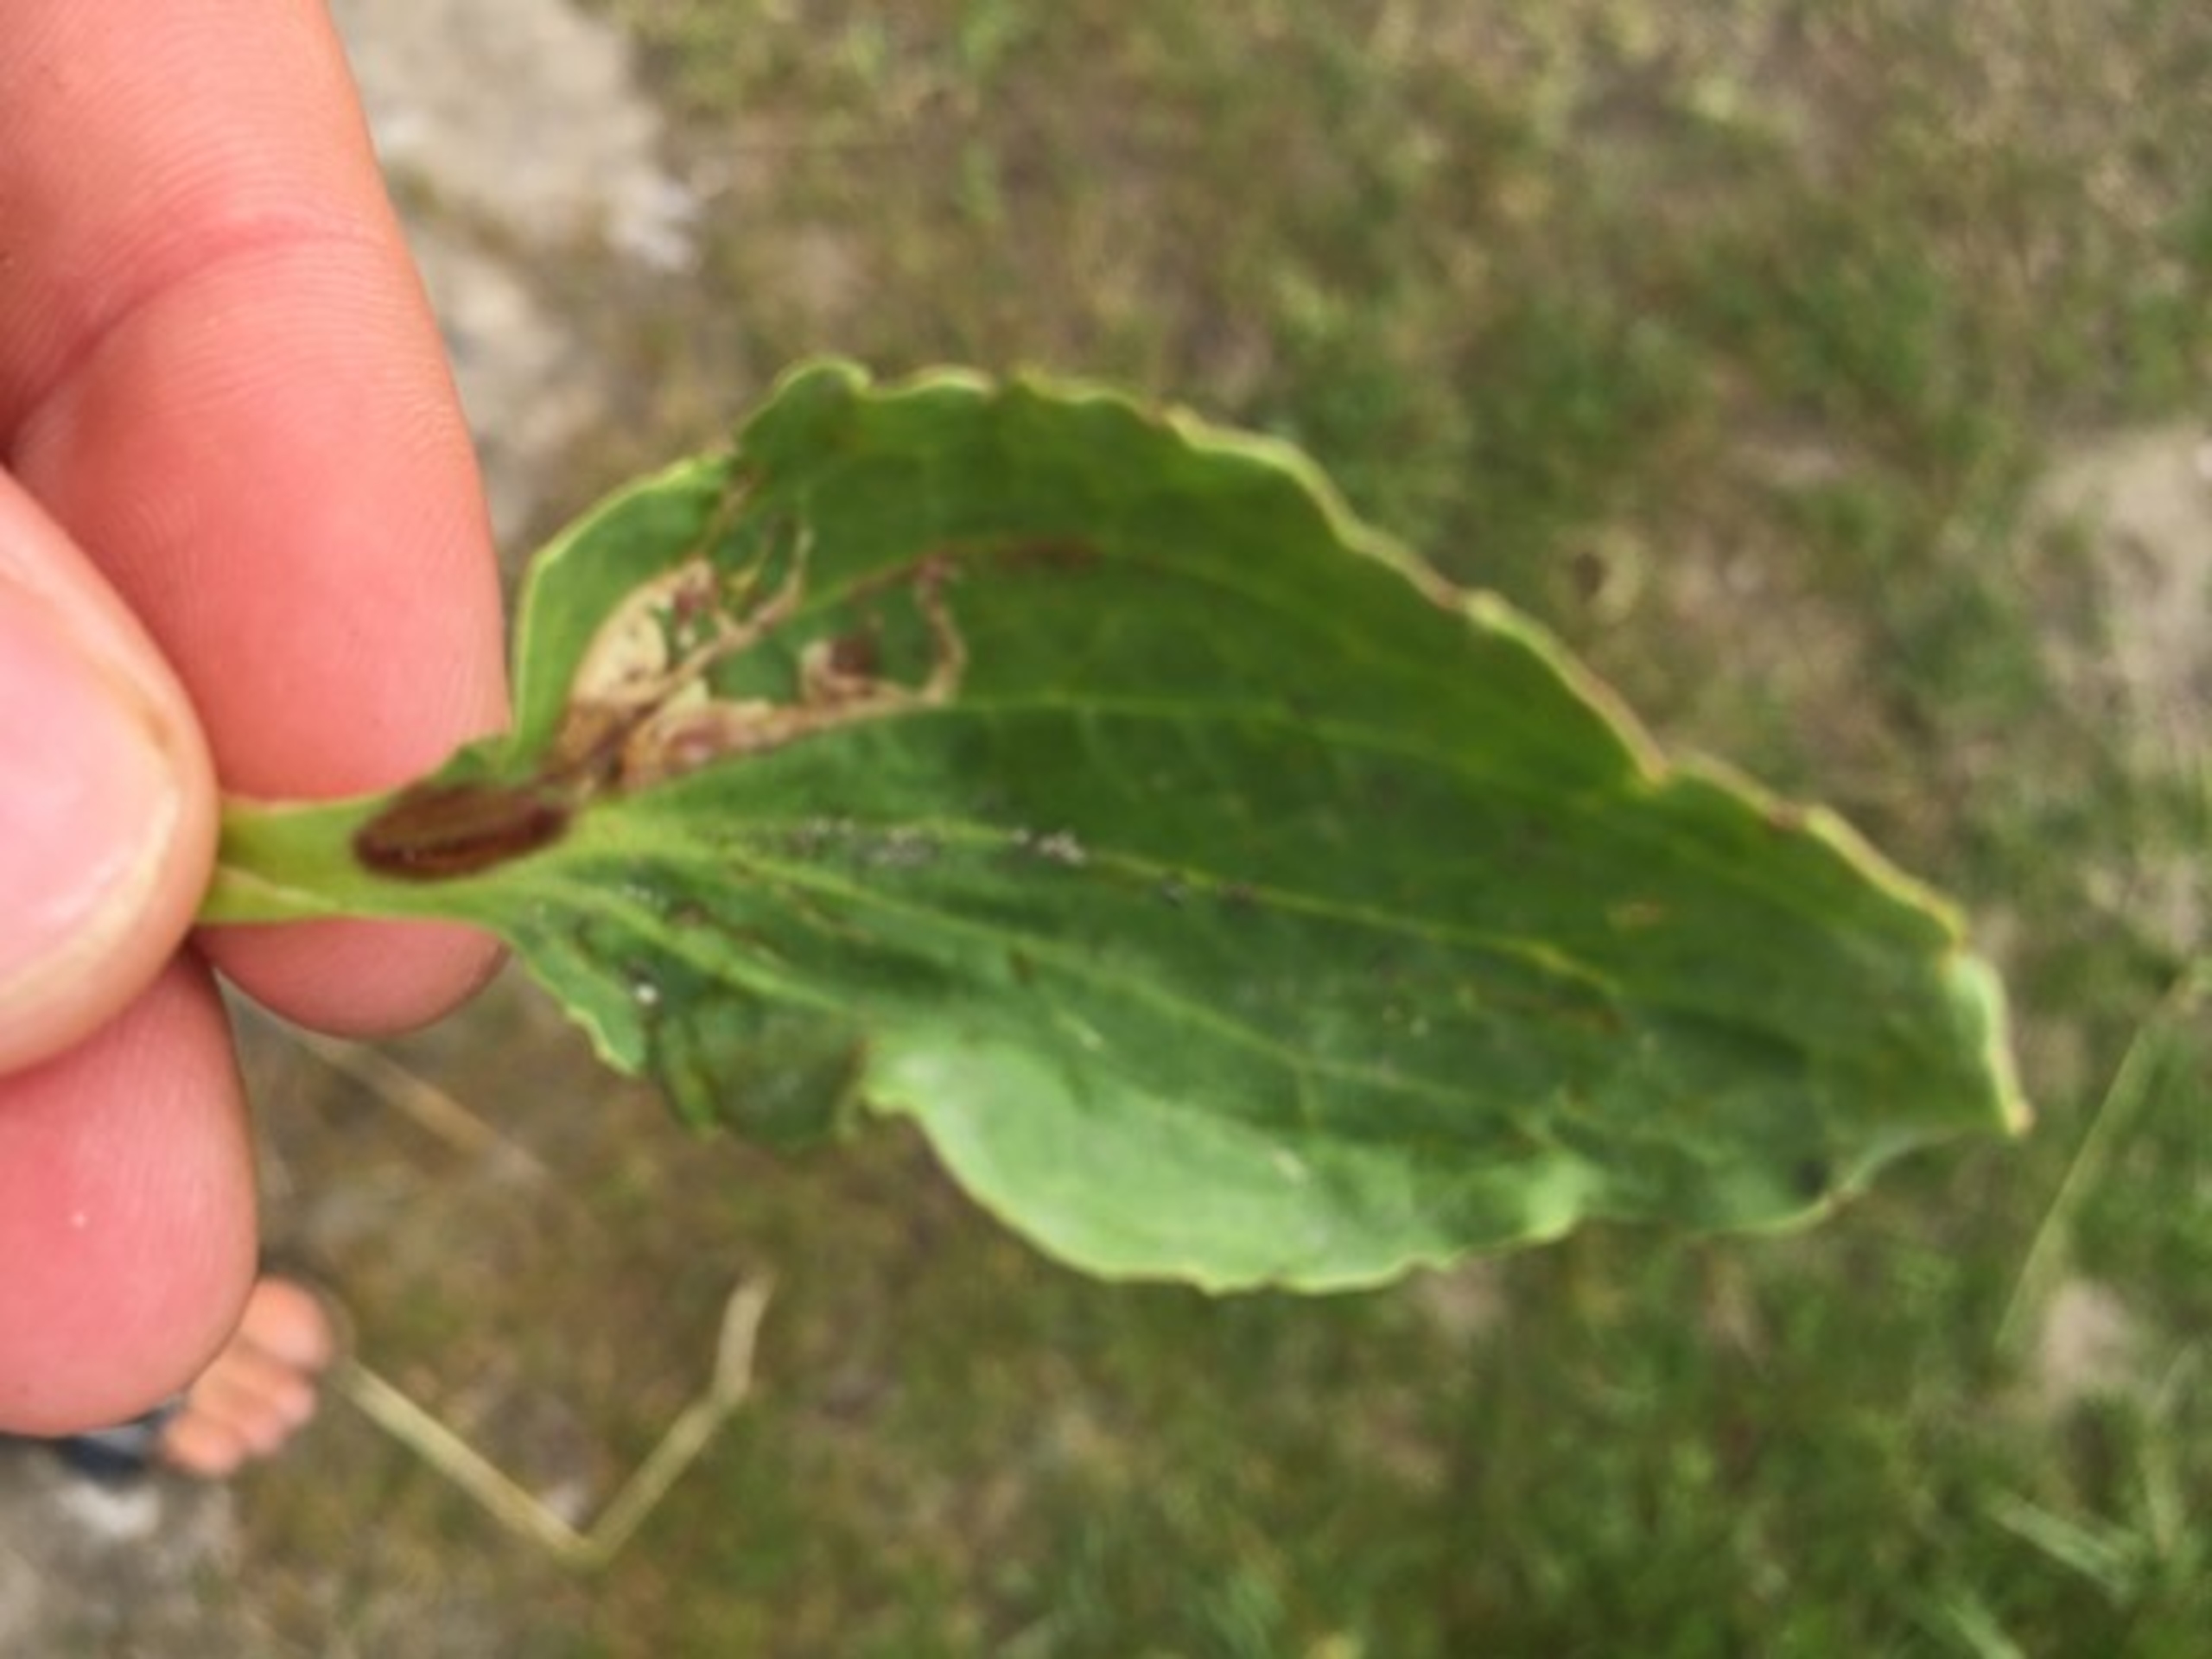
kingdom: Plantae
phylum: Tracheophyta
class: Magnoliopsida
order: Lamiales
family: Plantaginaceae
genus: Plantago
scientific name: Plantago major
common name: Glat vejbred
